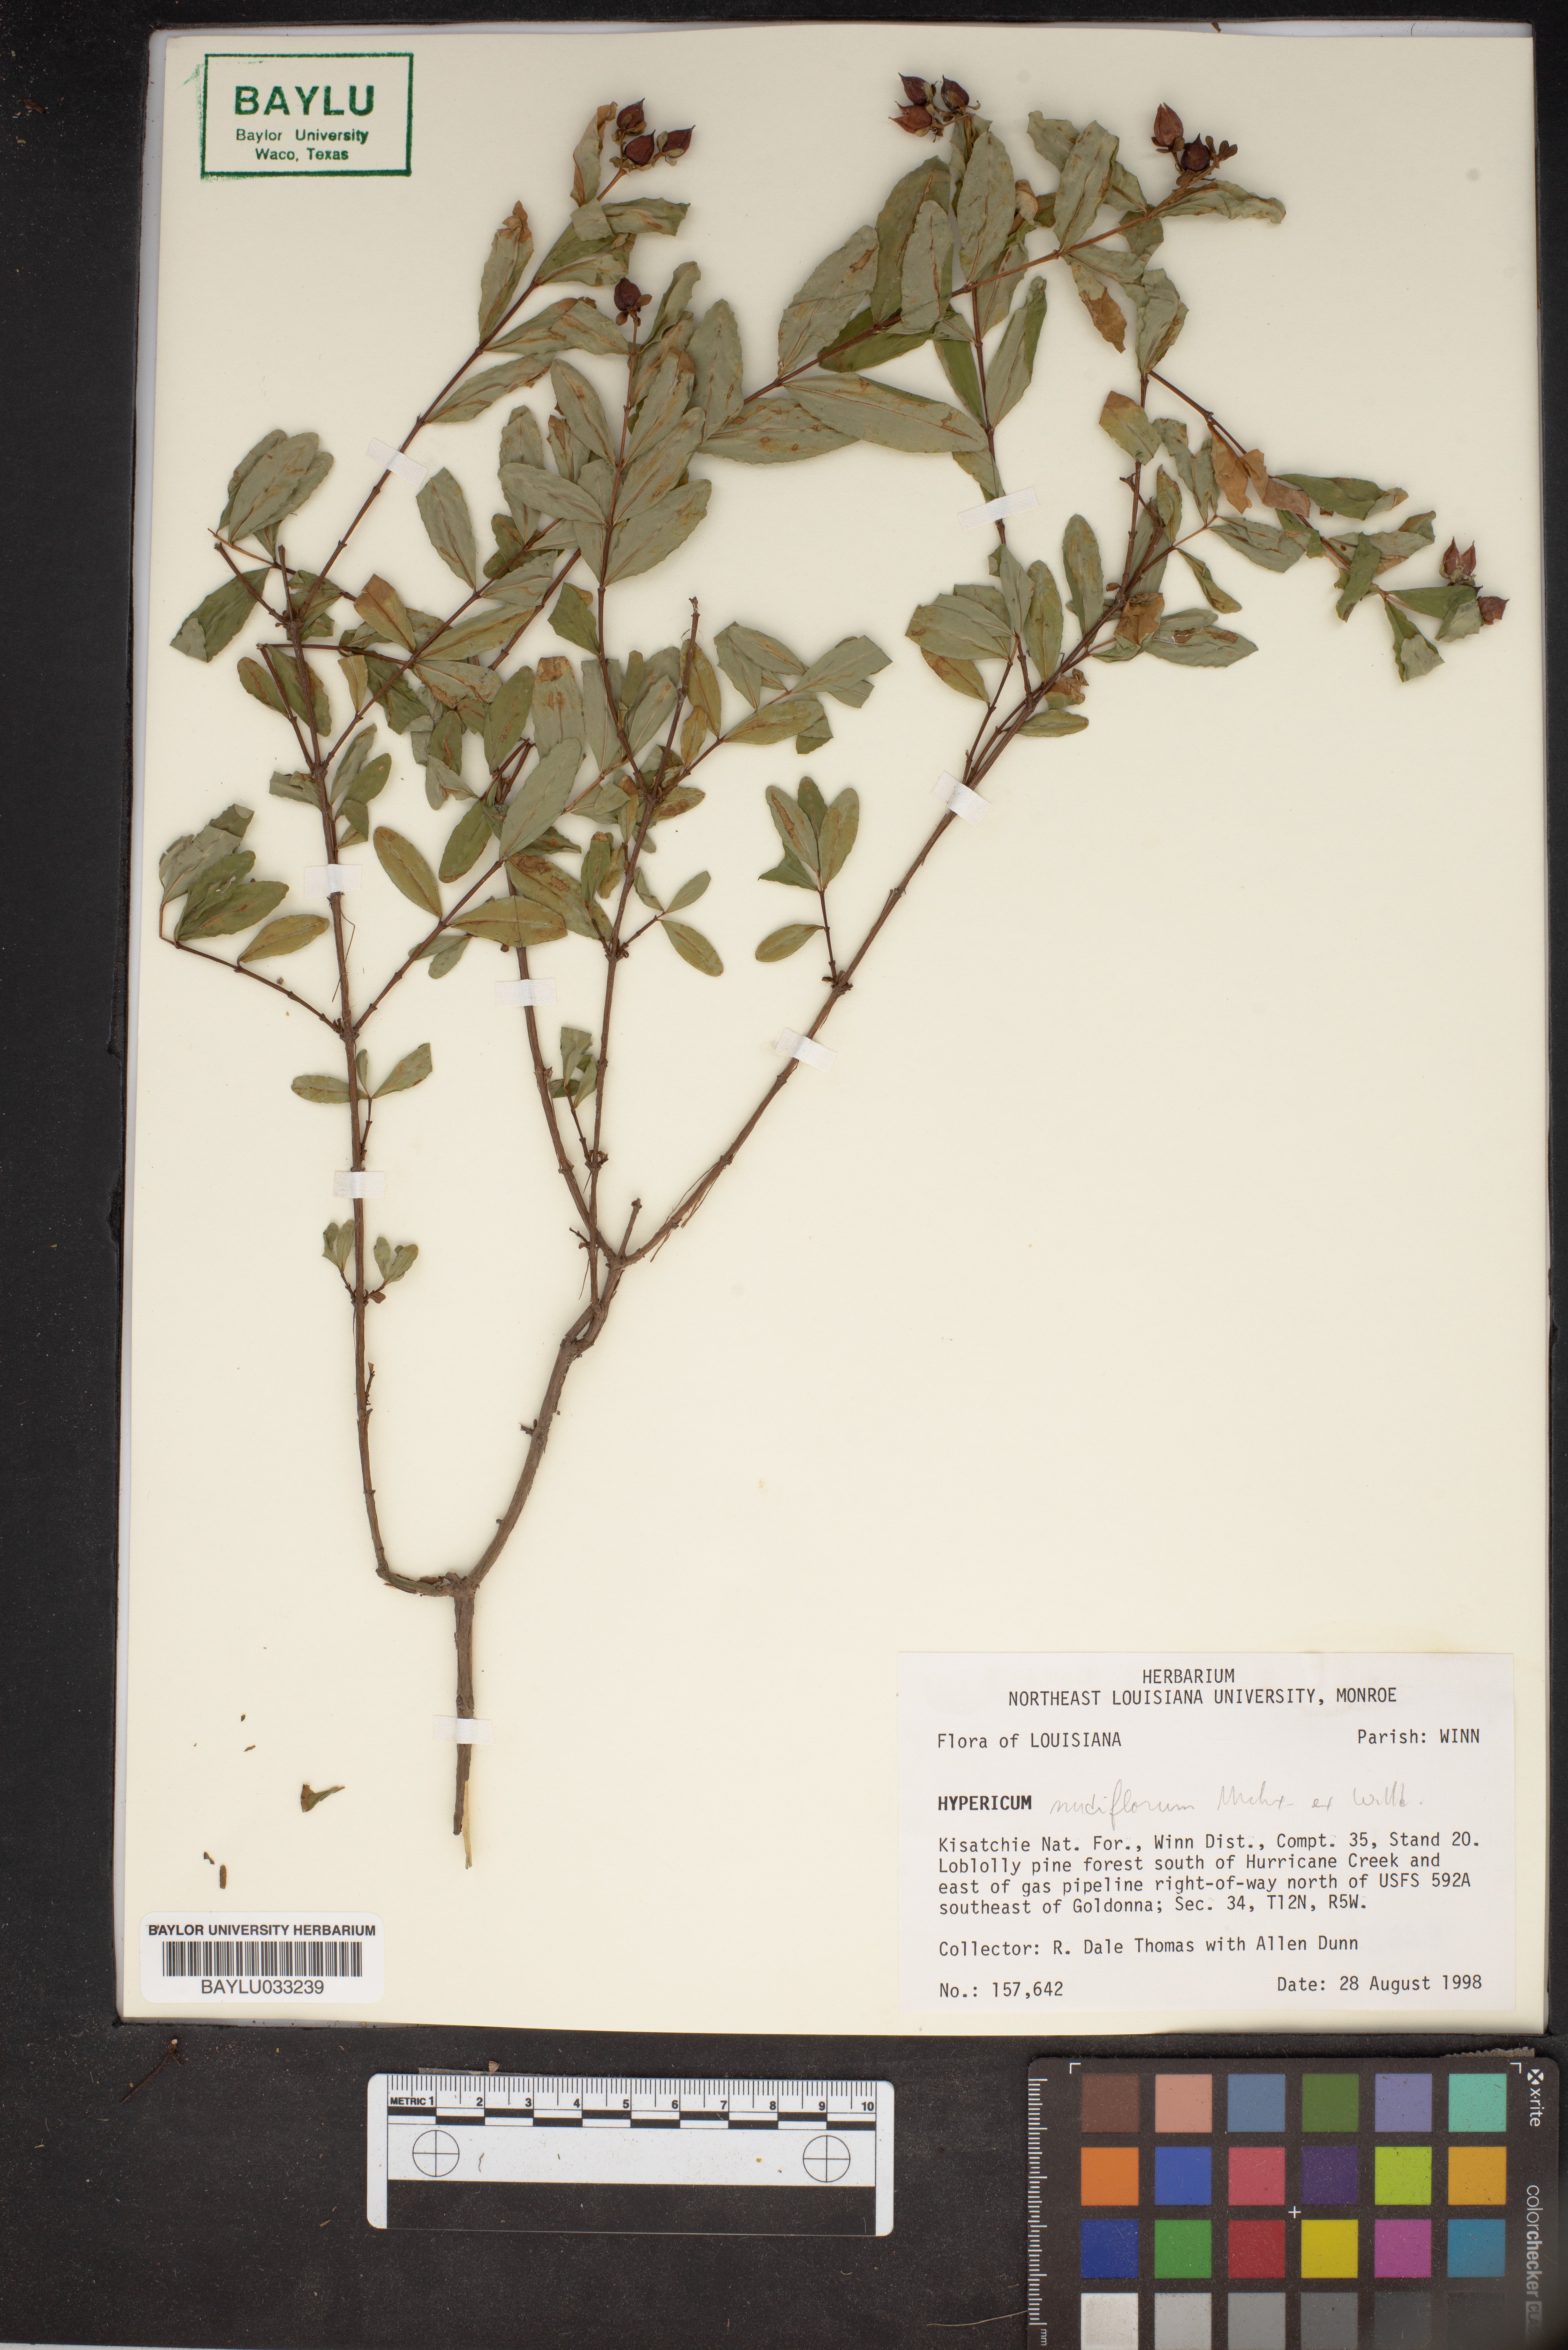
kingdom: Plantae
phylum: Tracheophyta
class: Magnoliopsida
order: Malpighiales
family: Hypericaceae
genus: Hypericum
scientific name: Hypericum nudiflorum
